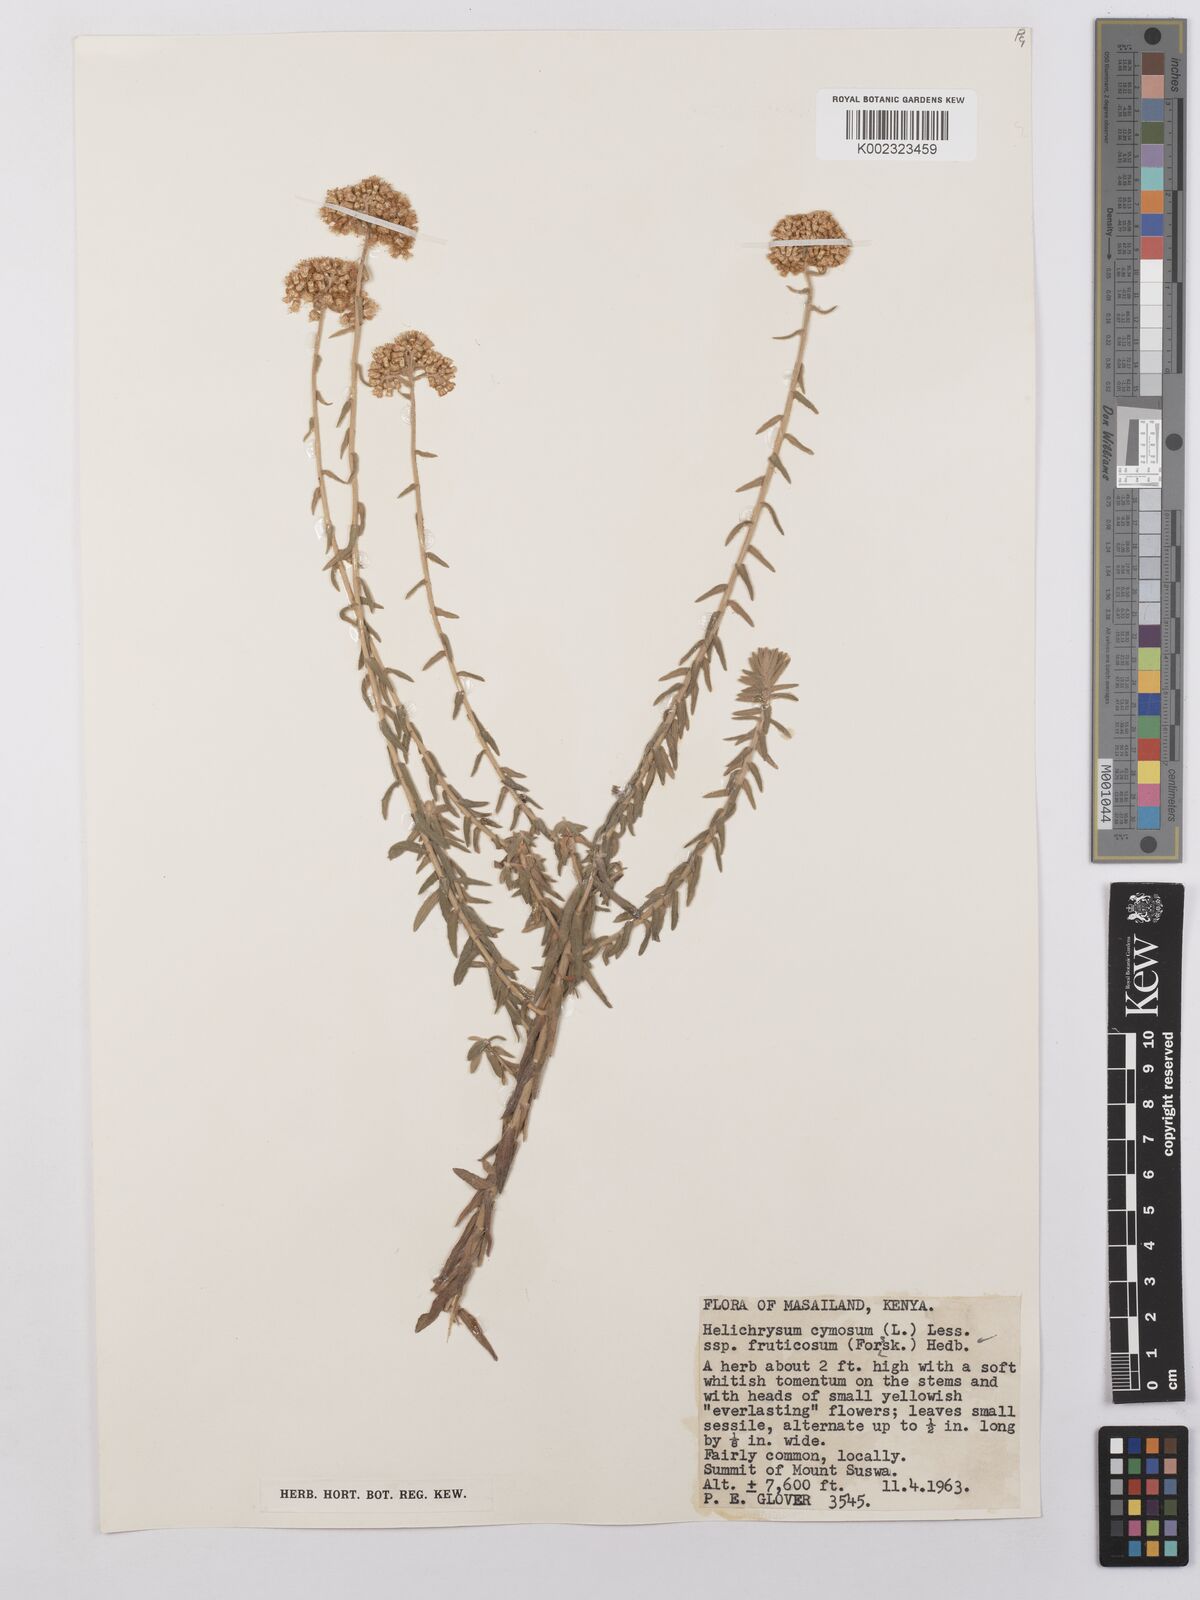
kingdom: Plantae
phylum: Tracheophyta
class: Magnoliopsida
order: Asterales
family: Asteraceae
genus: Helichrysum
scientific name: Helichrysum forskahlii
